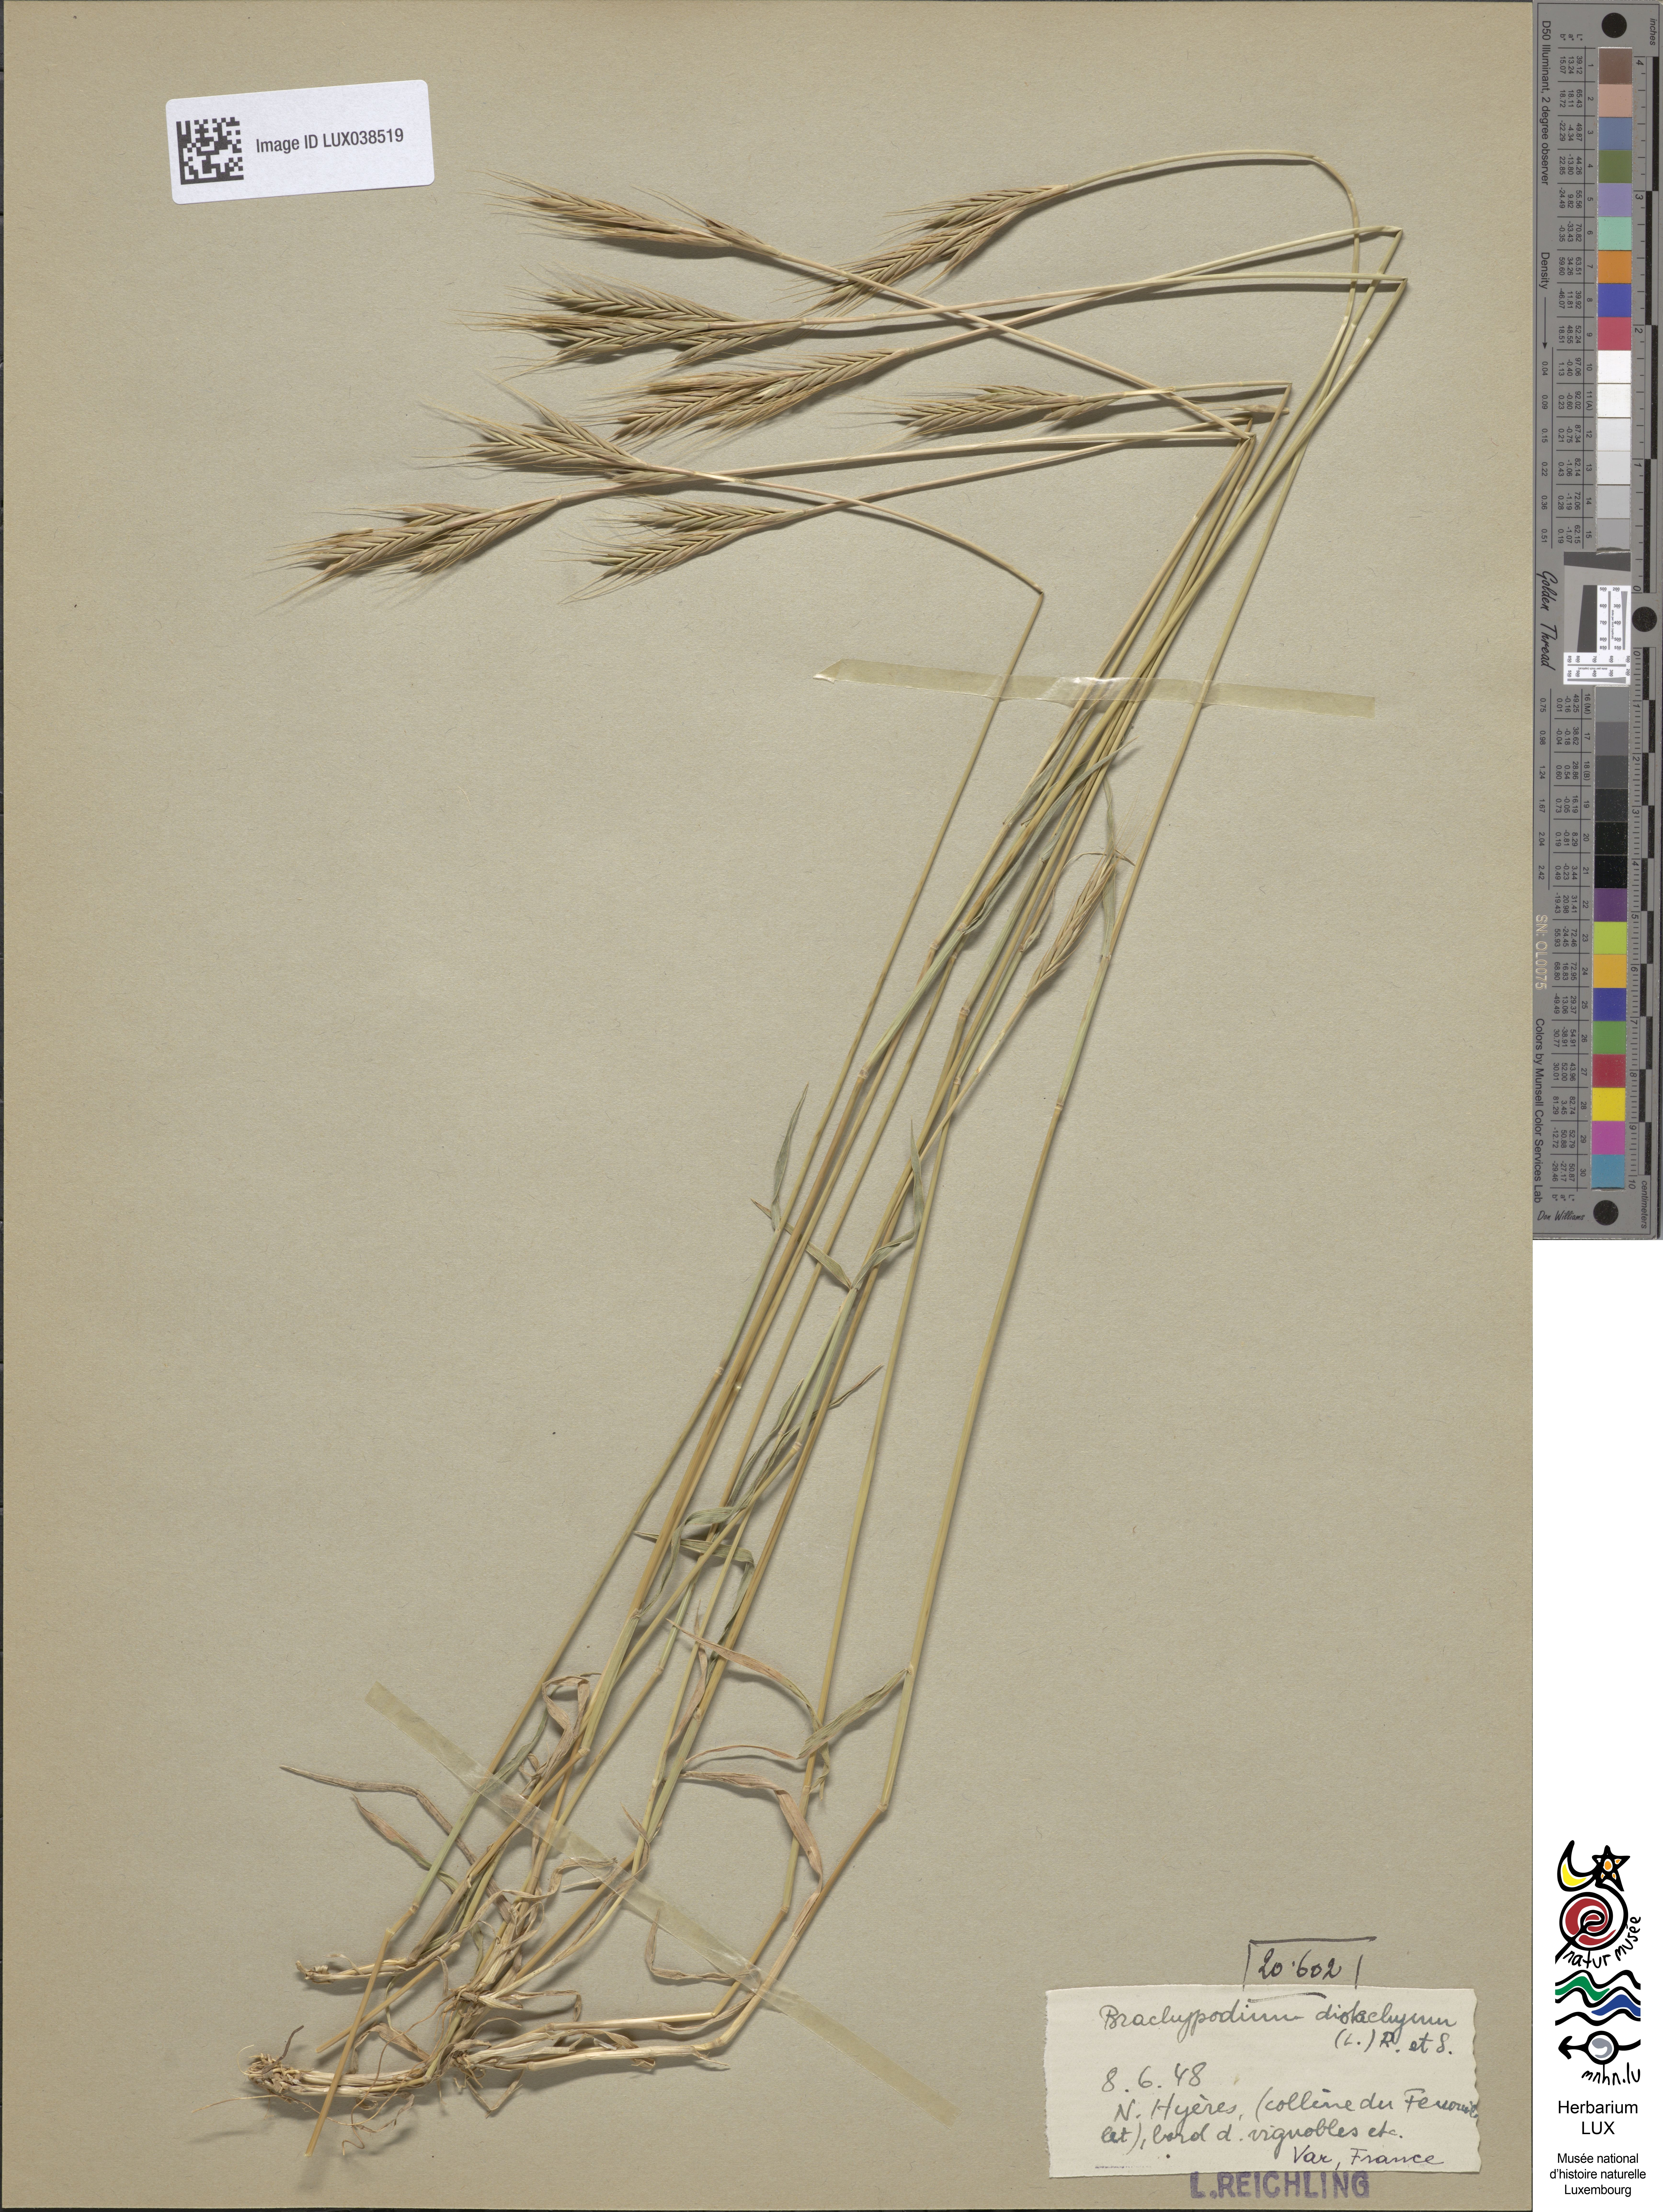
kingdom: Plantae
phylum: Tracheophyta
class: Liliopsida
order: Poales
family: Poaceae
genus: Brachypodium
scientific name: Brachypodium distachyon
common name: Stiff brome
